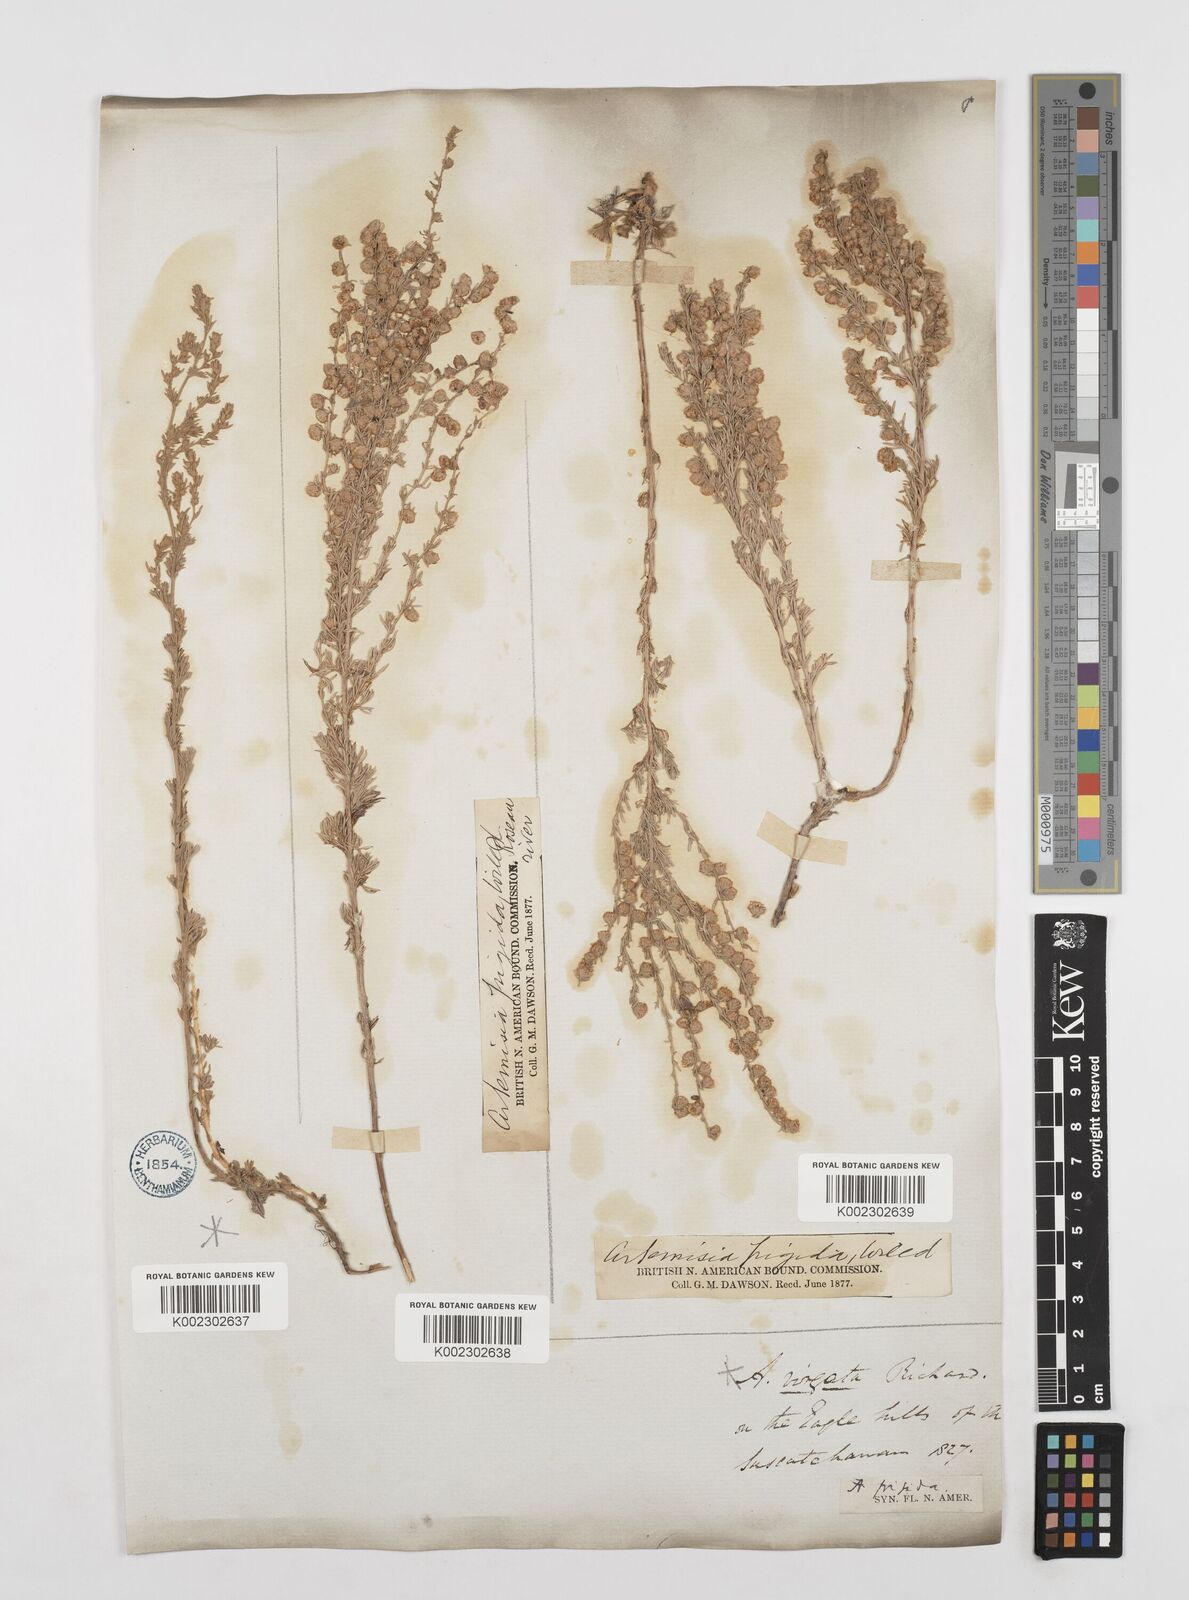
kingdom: Plantae
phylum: Tracheophyta
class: Magnoliopsida
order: Asterales
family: Asteraceae
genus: Artemisia
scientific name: Artemisia frigida
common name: Prairie sagewort
